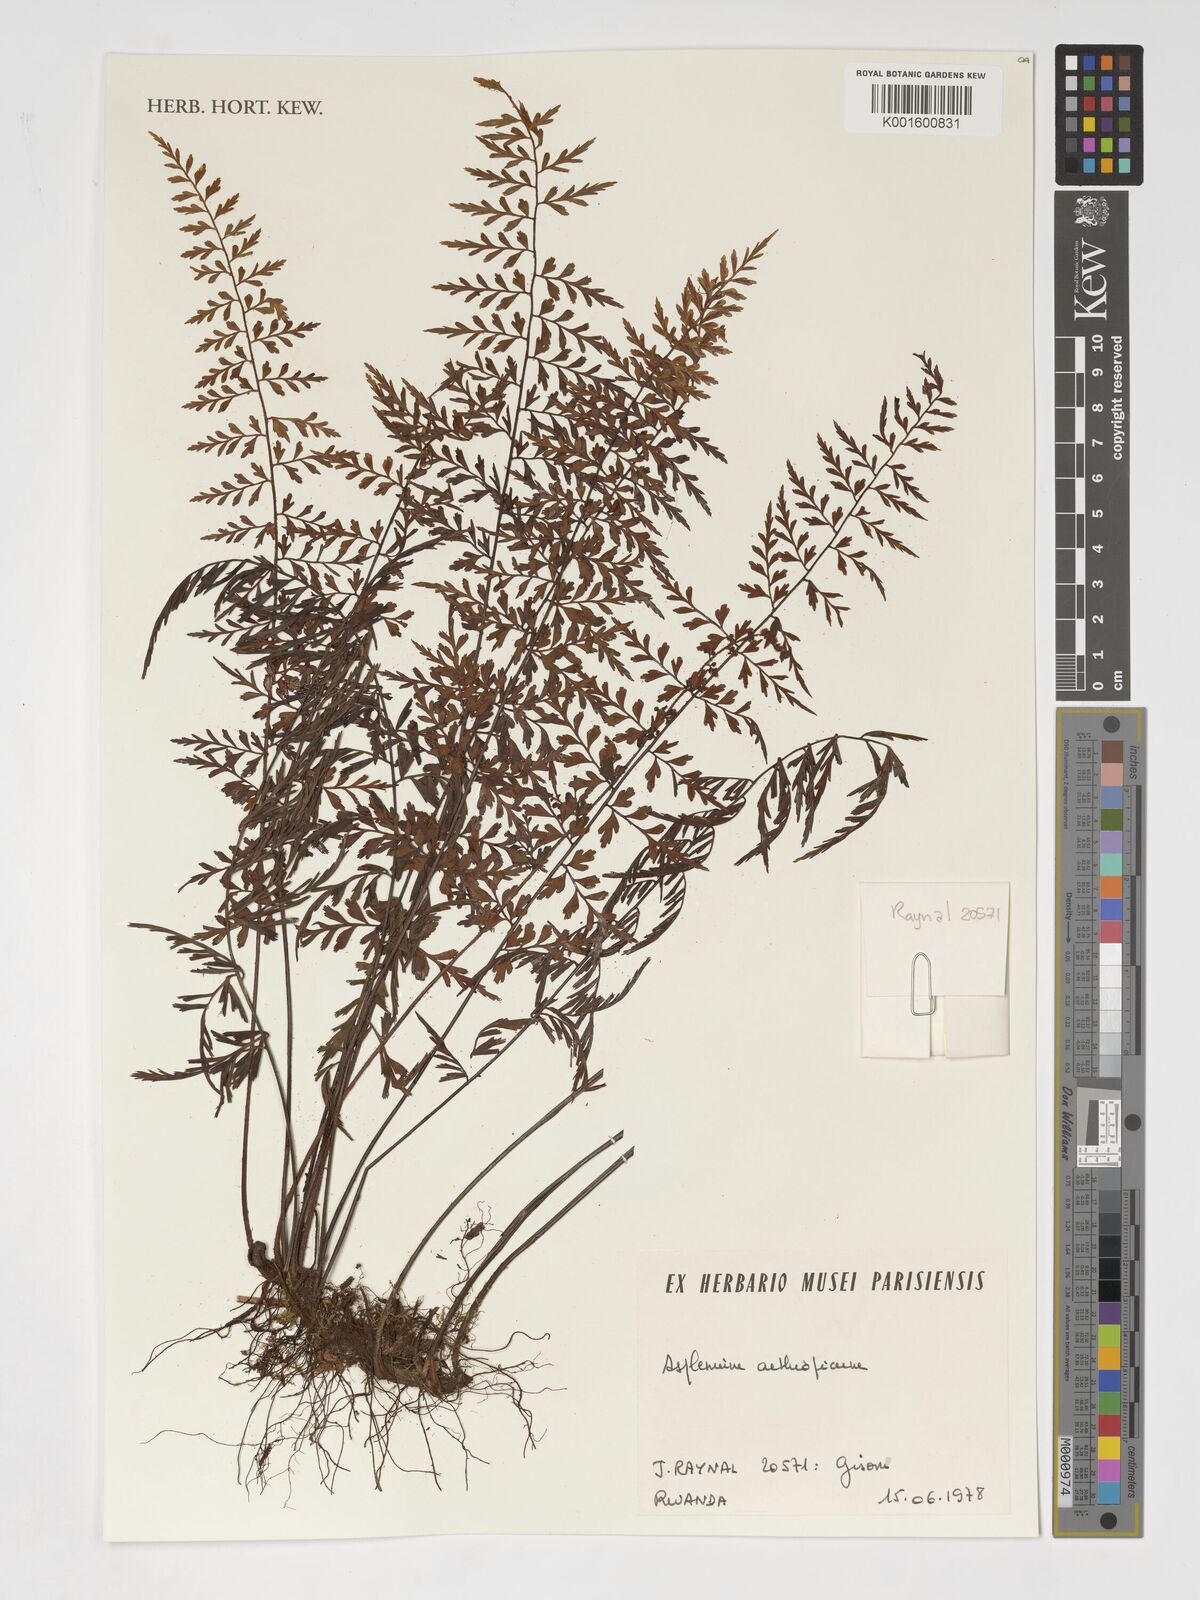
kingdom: Plantae
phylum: Tracheophyta
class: Polypodiopsida
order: Polypodiales
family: Aspleniaceae
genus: Asplenium
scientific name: Asplenium aethiopicum
